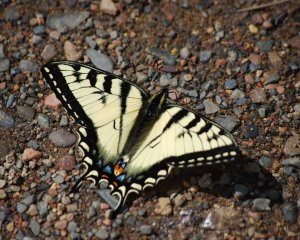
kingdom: Animalia
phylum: Arthropoda
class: Insecta
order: Lepidoptera
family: Papilionidae
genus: Pterourus
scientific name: Pterourus canadensis
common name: Canadian Tiger Swallowtail
